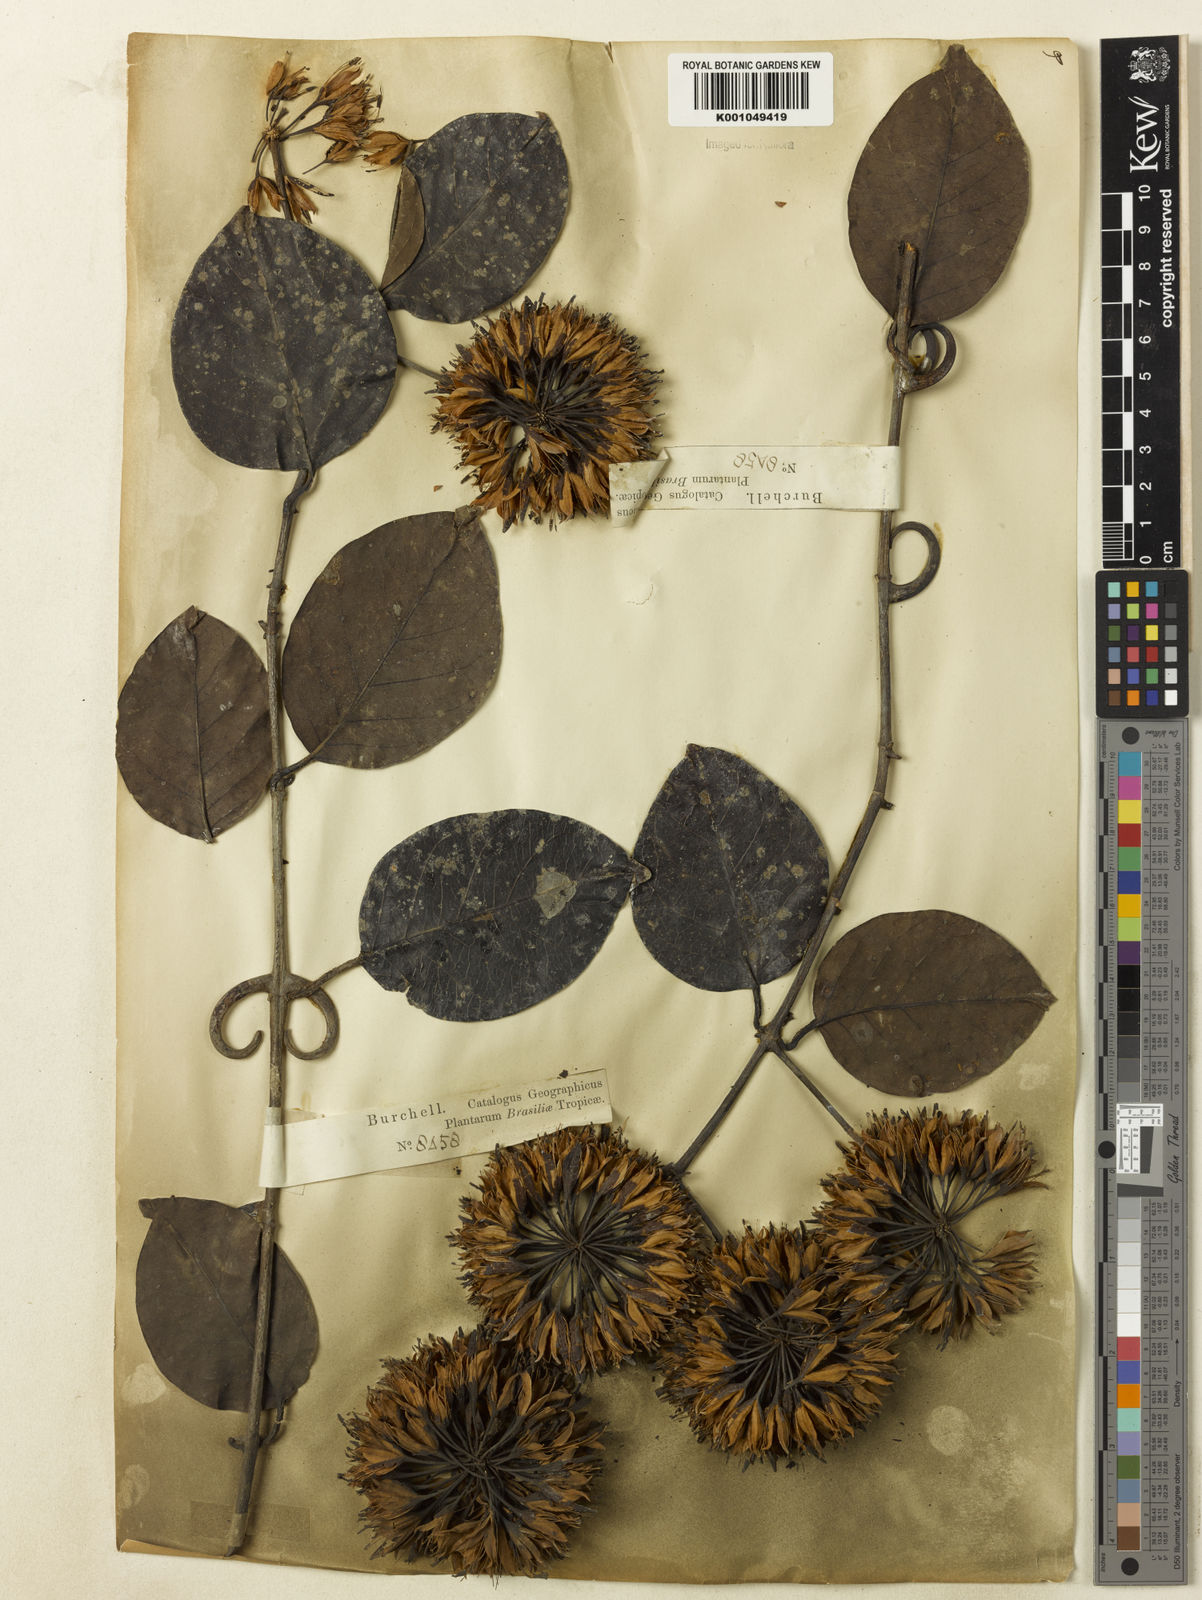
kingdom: Plantae
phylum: Tracheophyta
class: Magnoliopsida
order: Gentianales
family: Rubiaceae
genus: Uncaria
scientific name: Uncaria guianensis
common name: Cat's-claw
